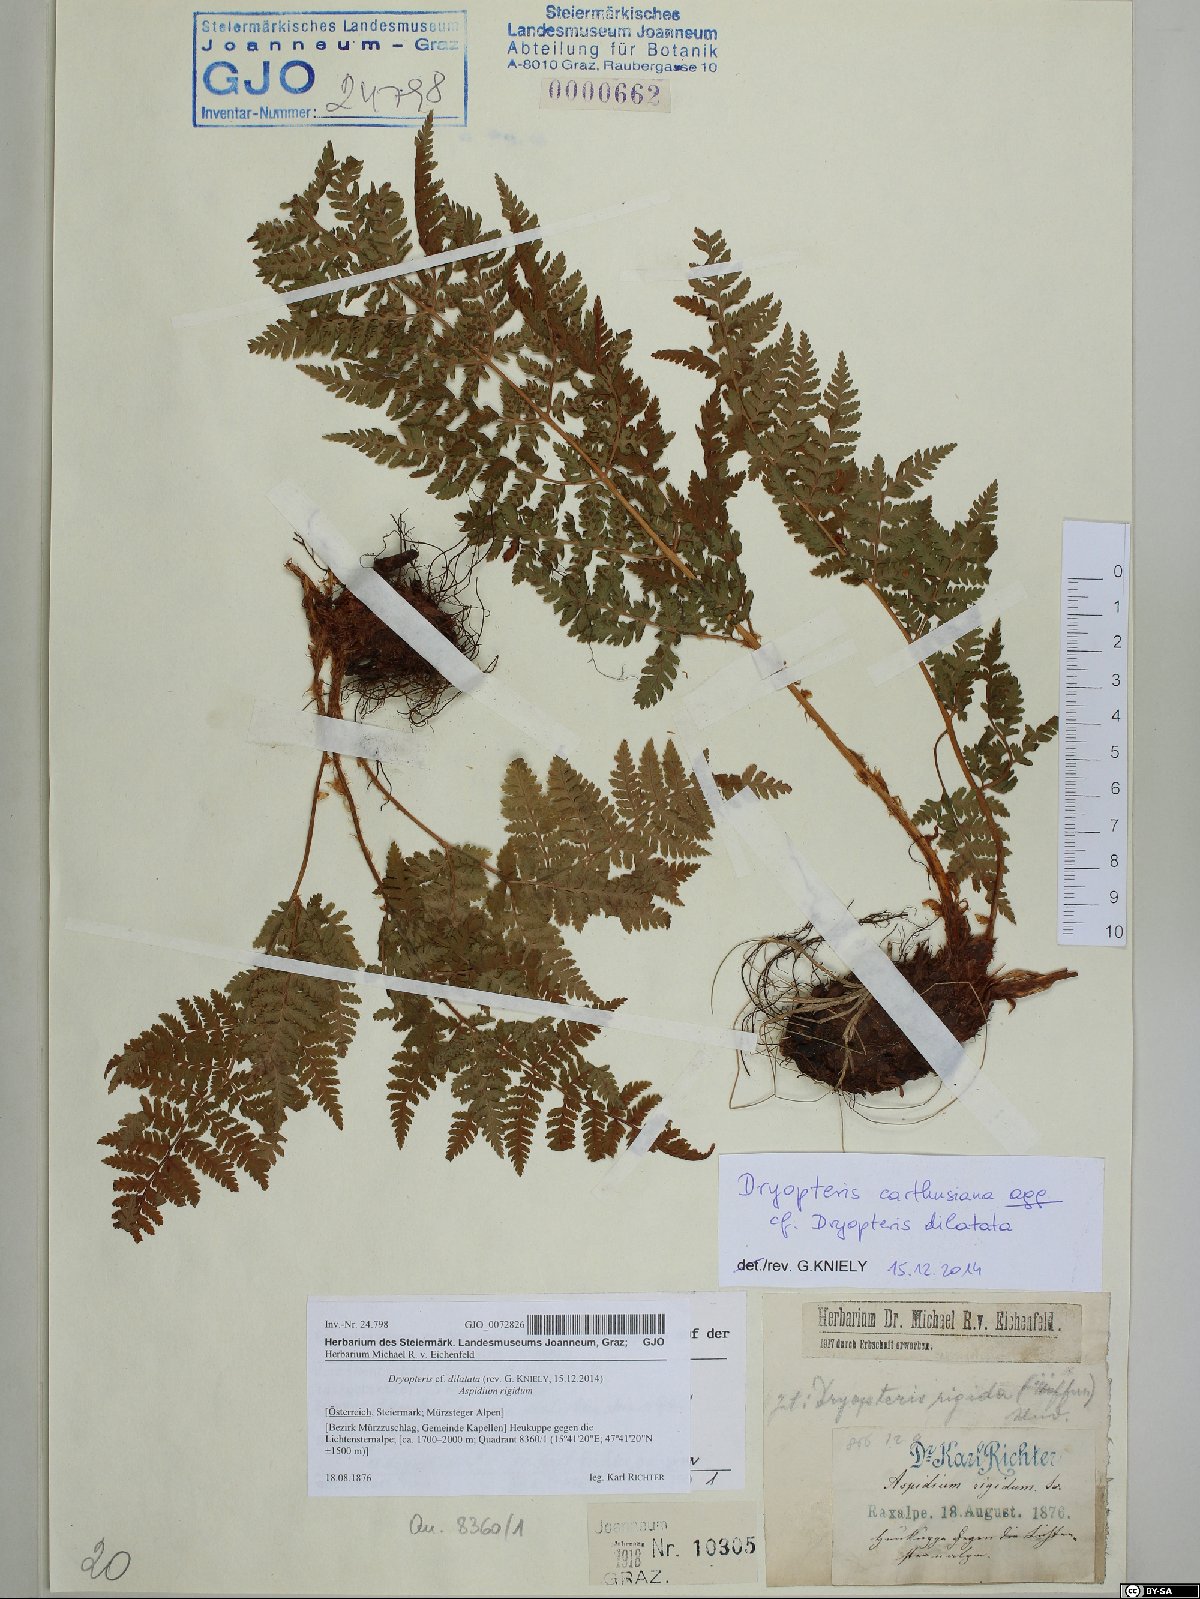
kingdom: Plantae
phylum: Tracheophyta
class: Polypodiopsida
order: Polypodiales
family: Dryopteridaceae
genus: Dryopteris
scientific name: Dryopteris dilatata
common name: Broad buckler-fern
